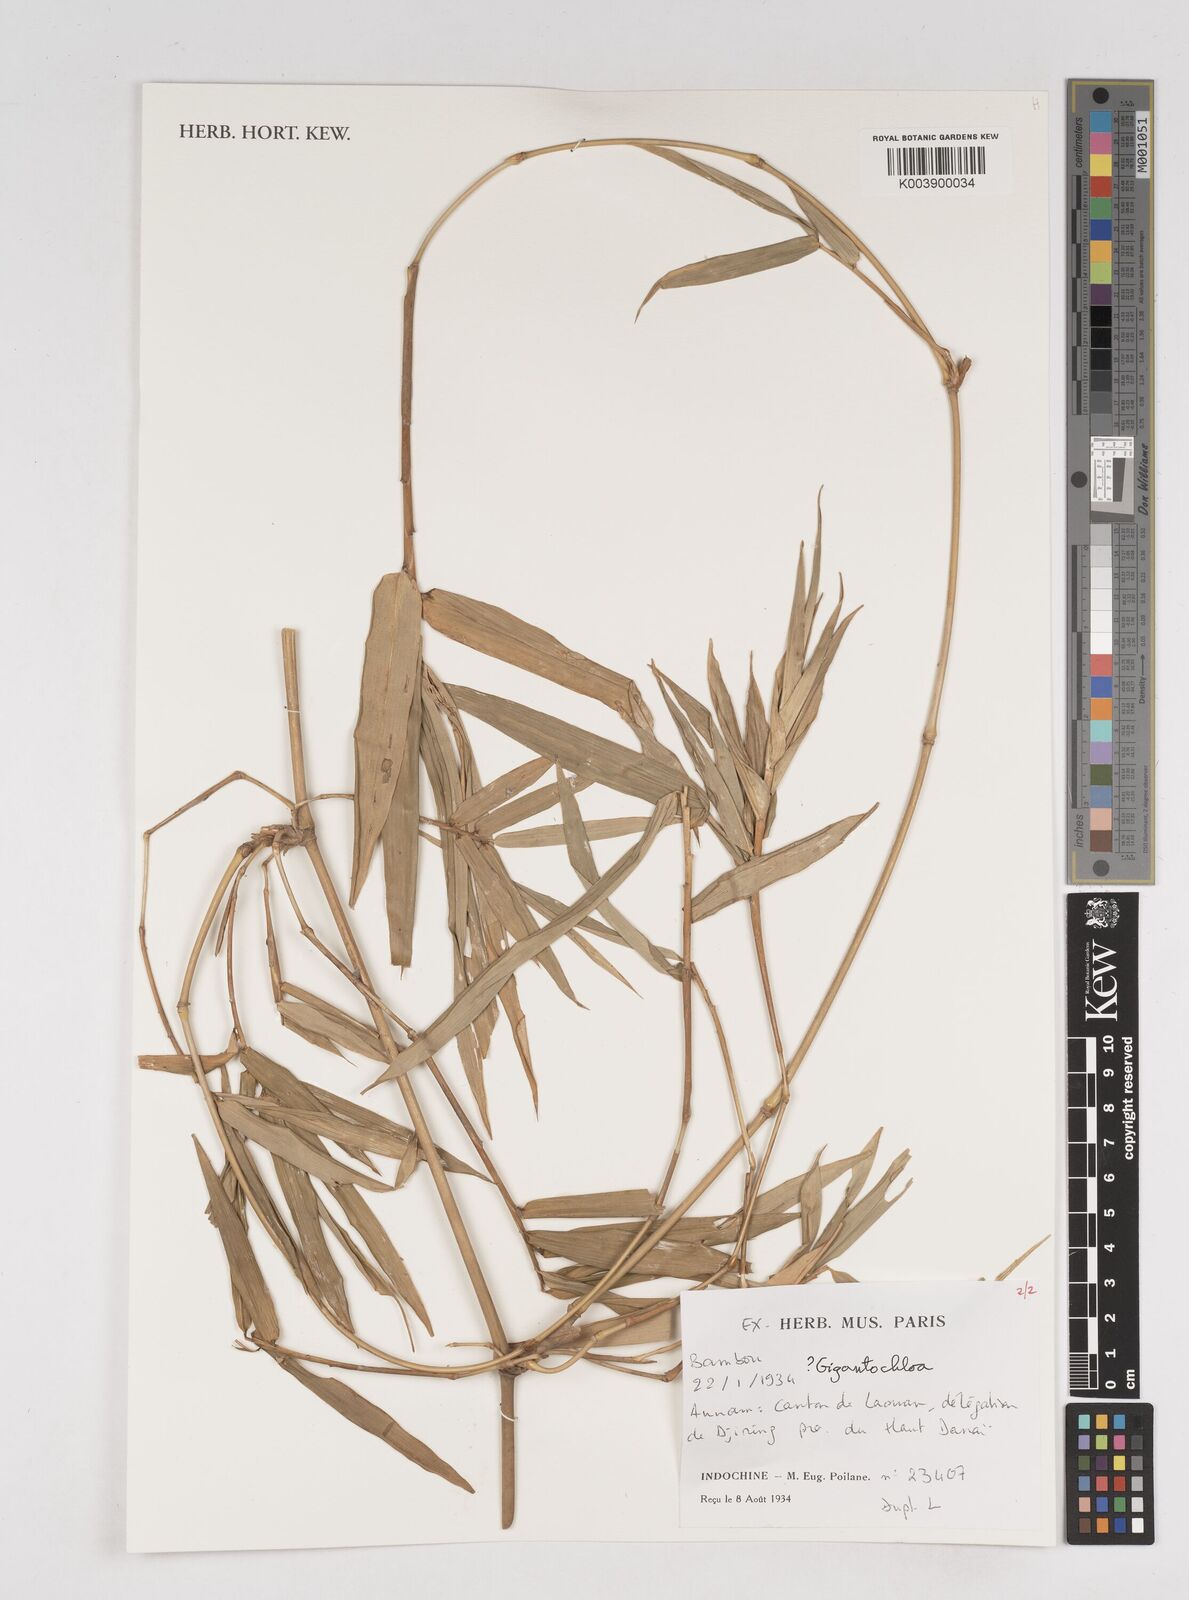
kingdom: Plantae
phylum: Tracheophyta
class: Liliopsida
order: Poales
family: Poaceae
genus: Gigantochloa
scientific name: Gigantochloa
